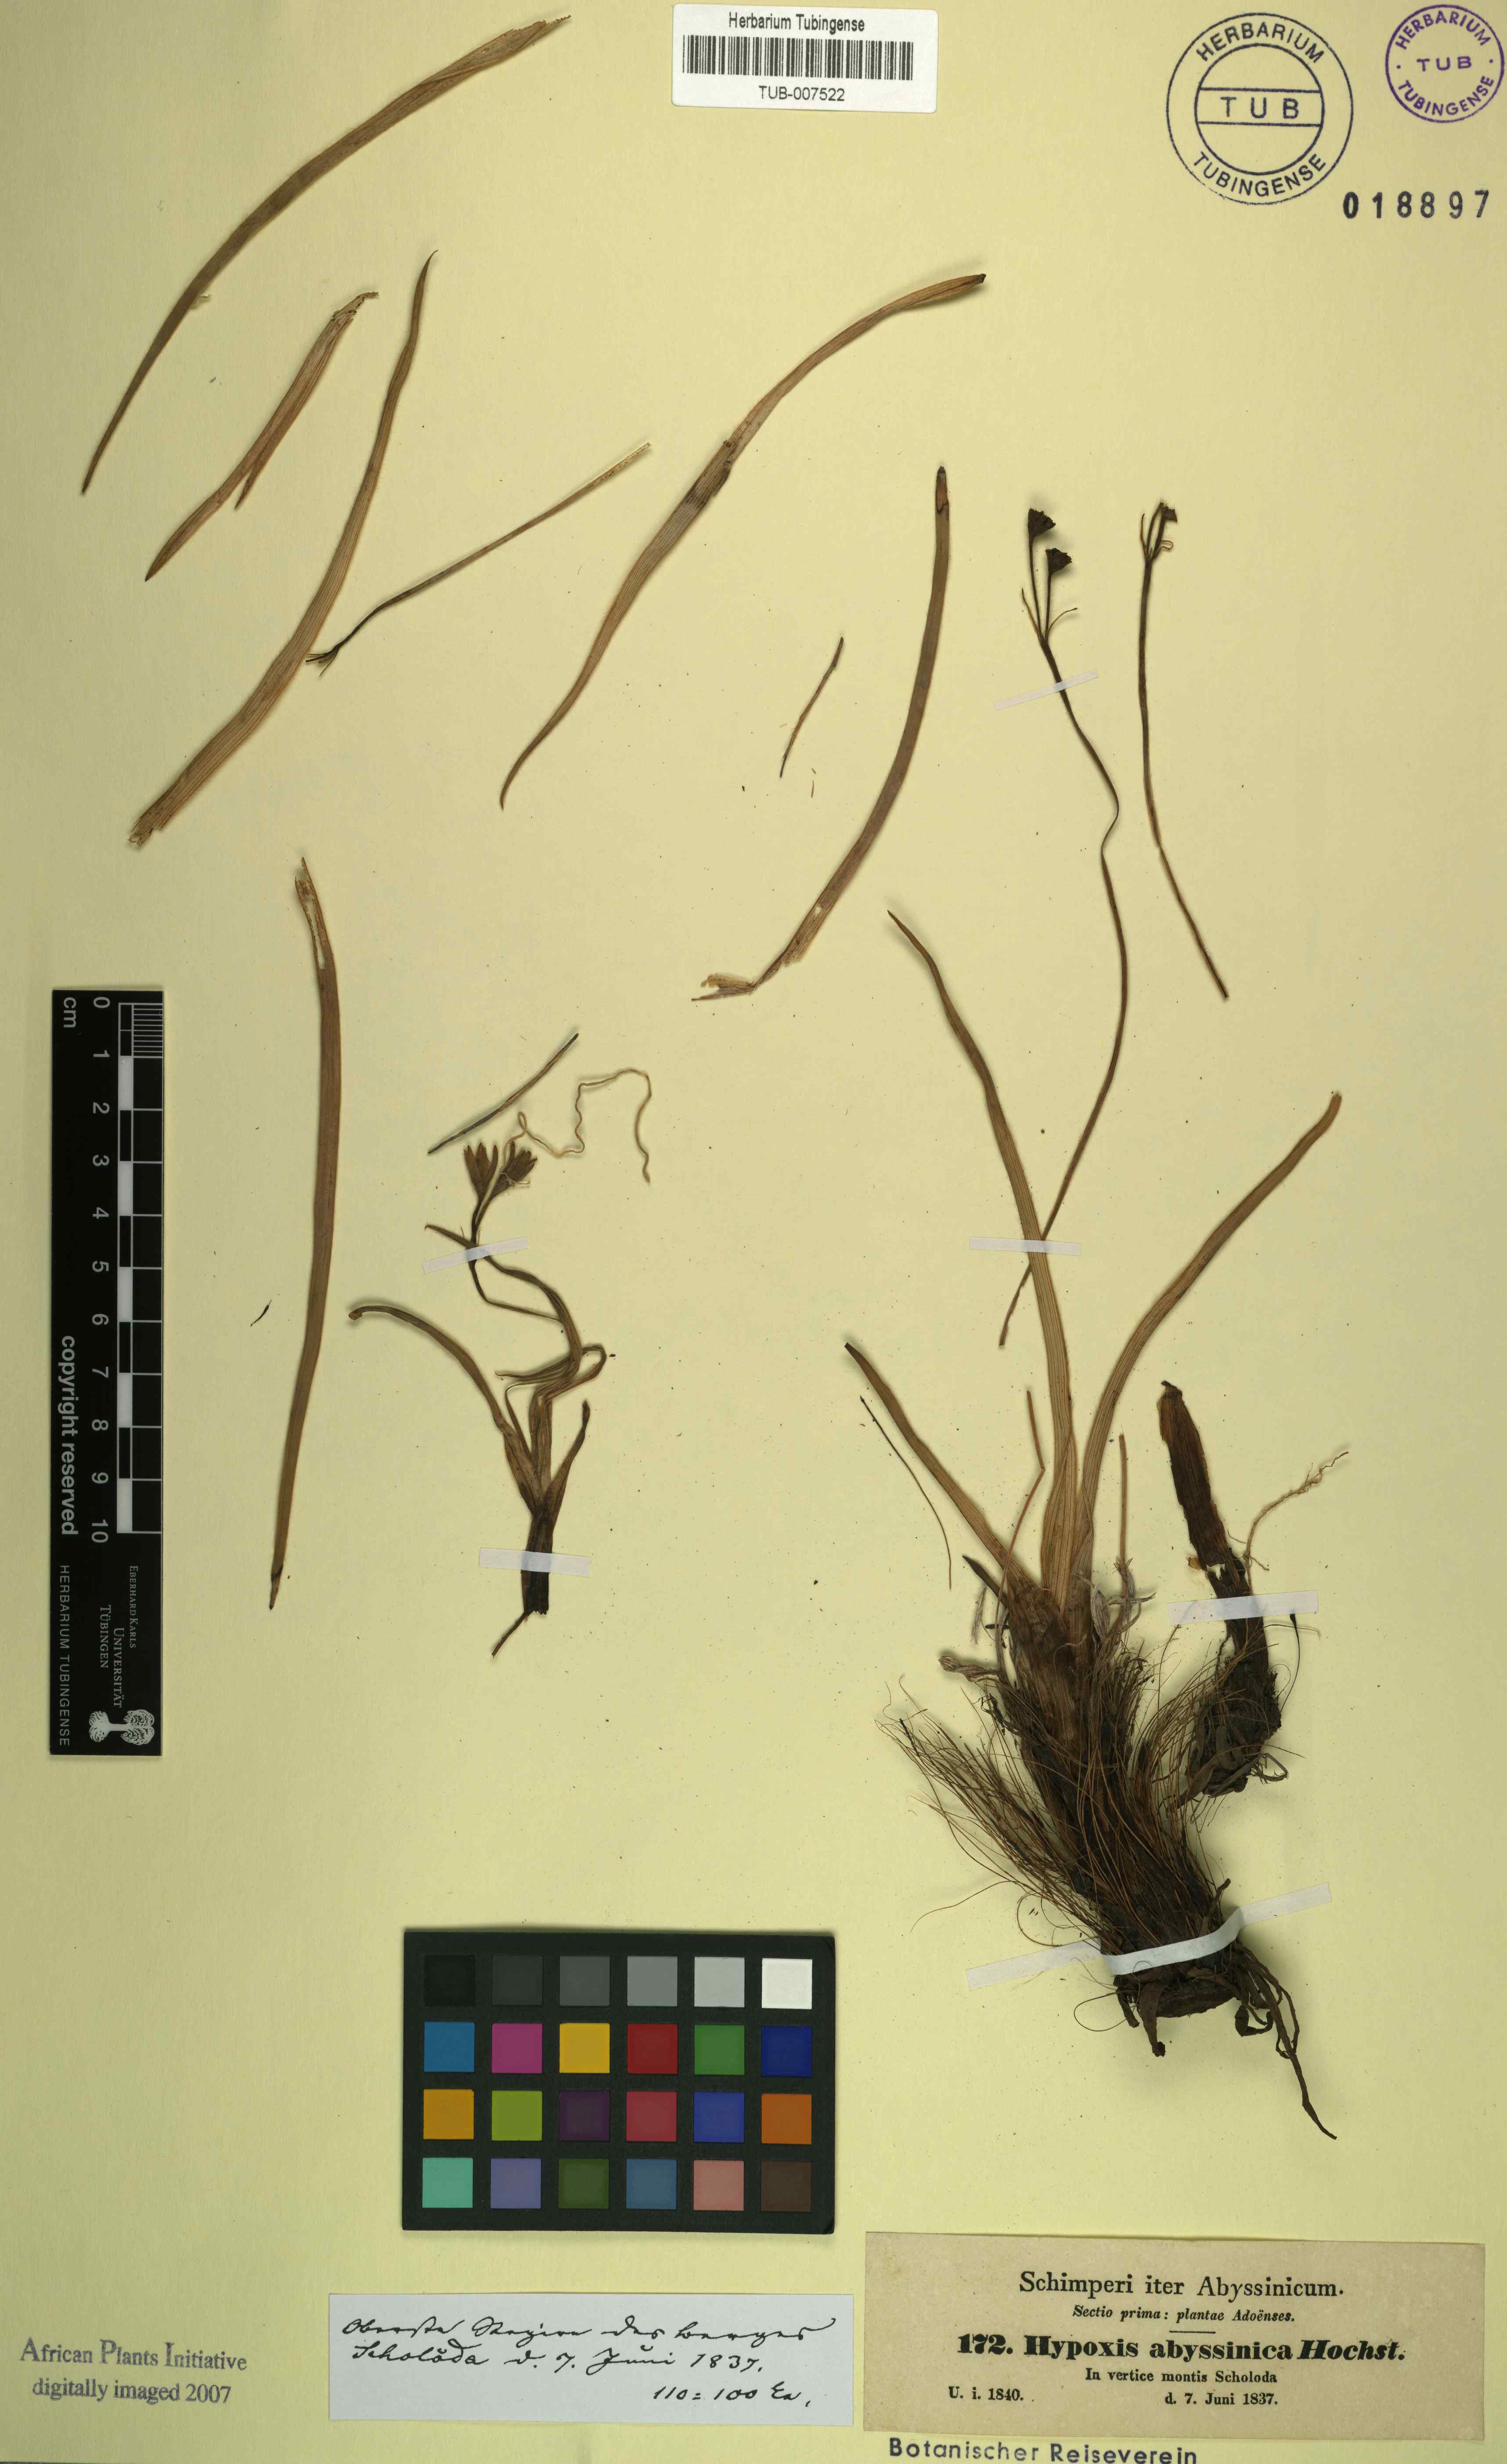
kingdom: Plantae
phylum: Tracheophyta
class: Liliopsida
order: Asparagales
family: Hypoxidaceae
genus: Hypoxis
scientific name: Hypoxis villosa
